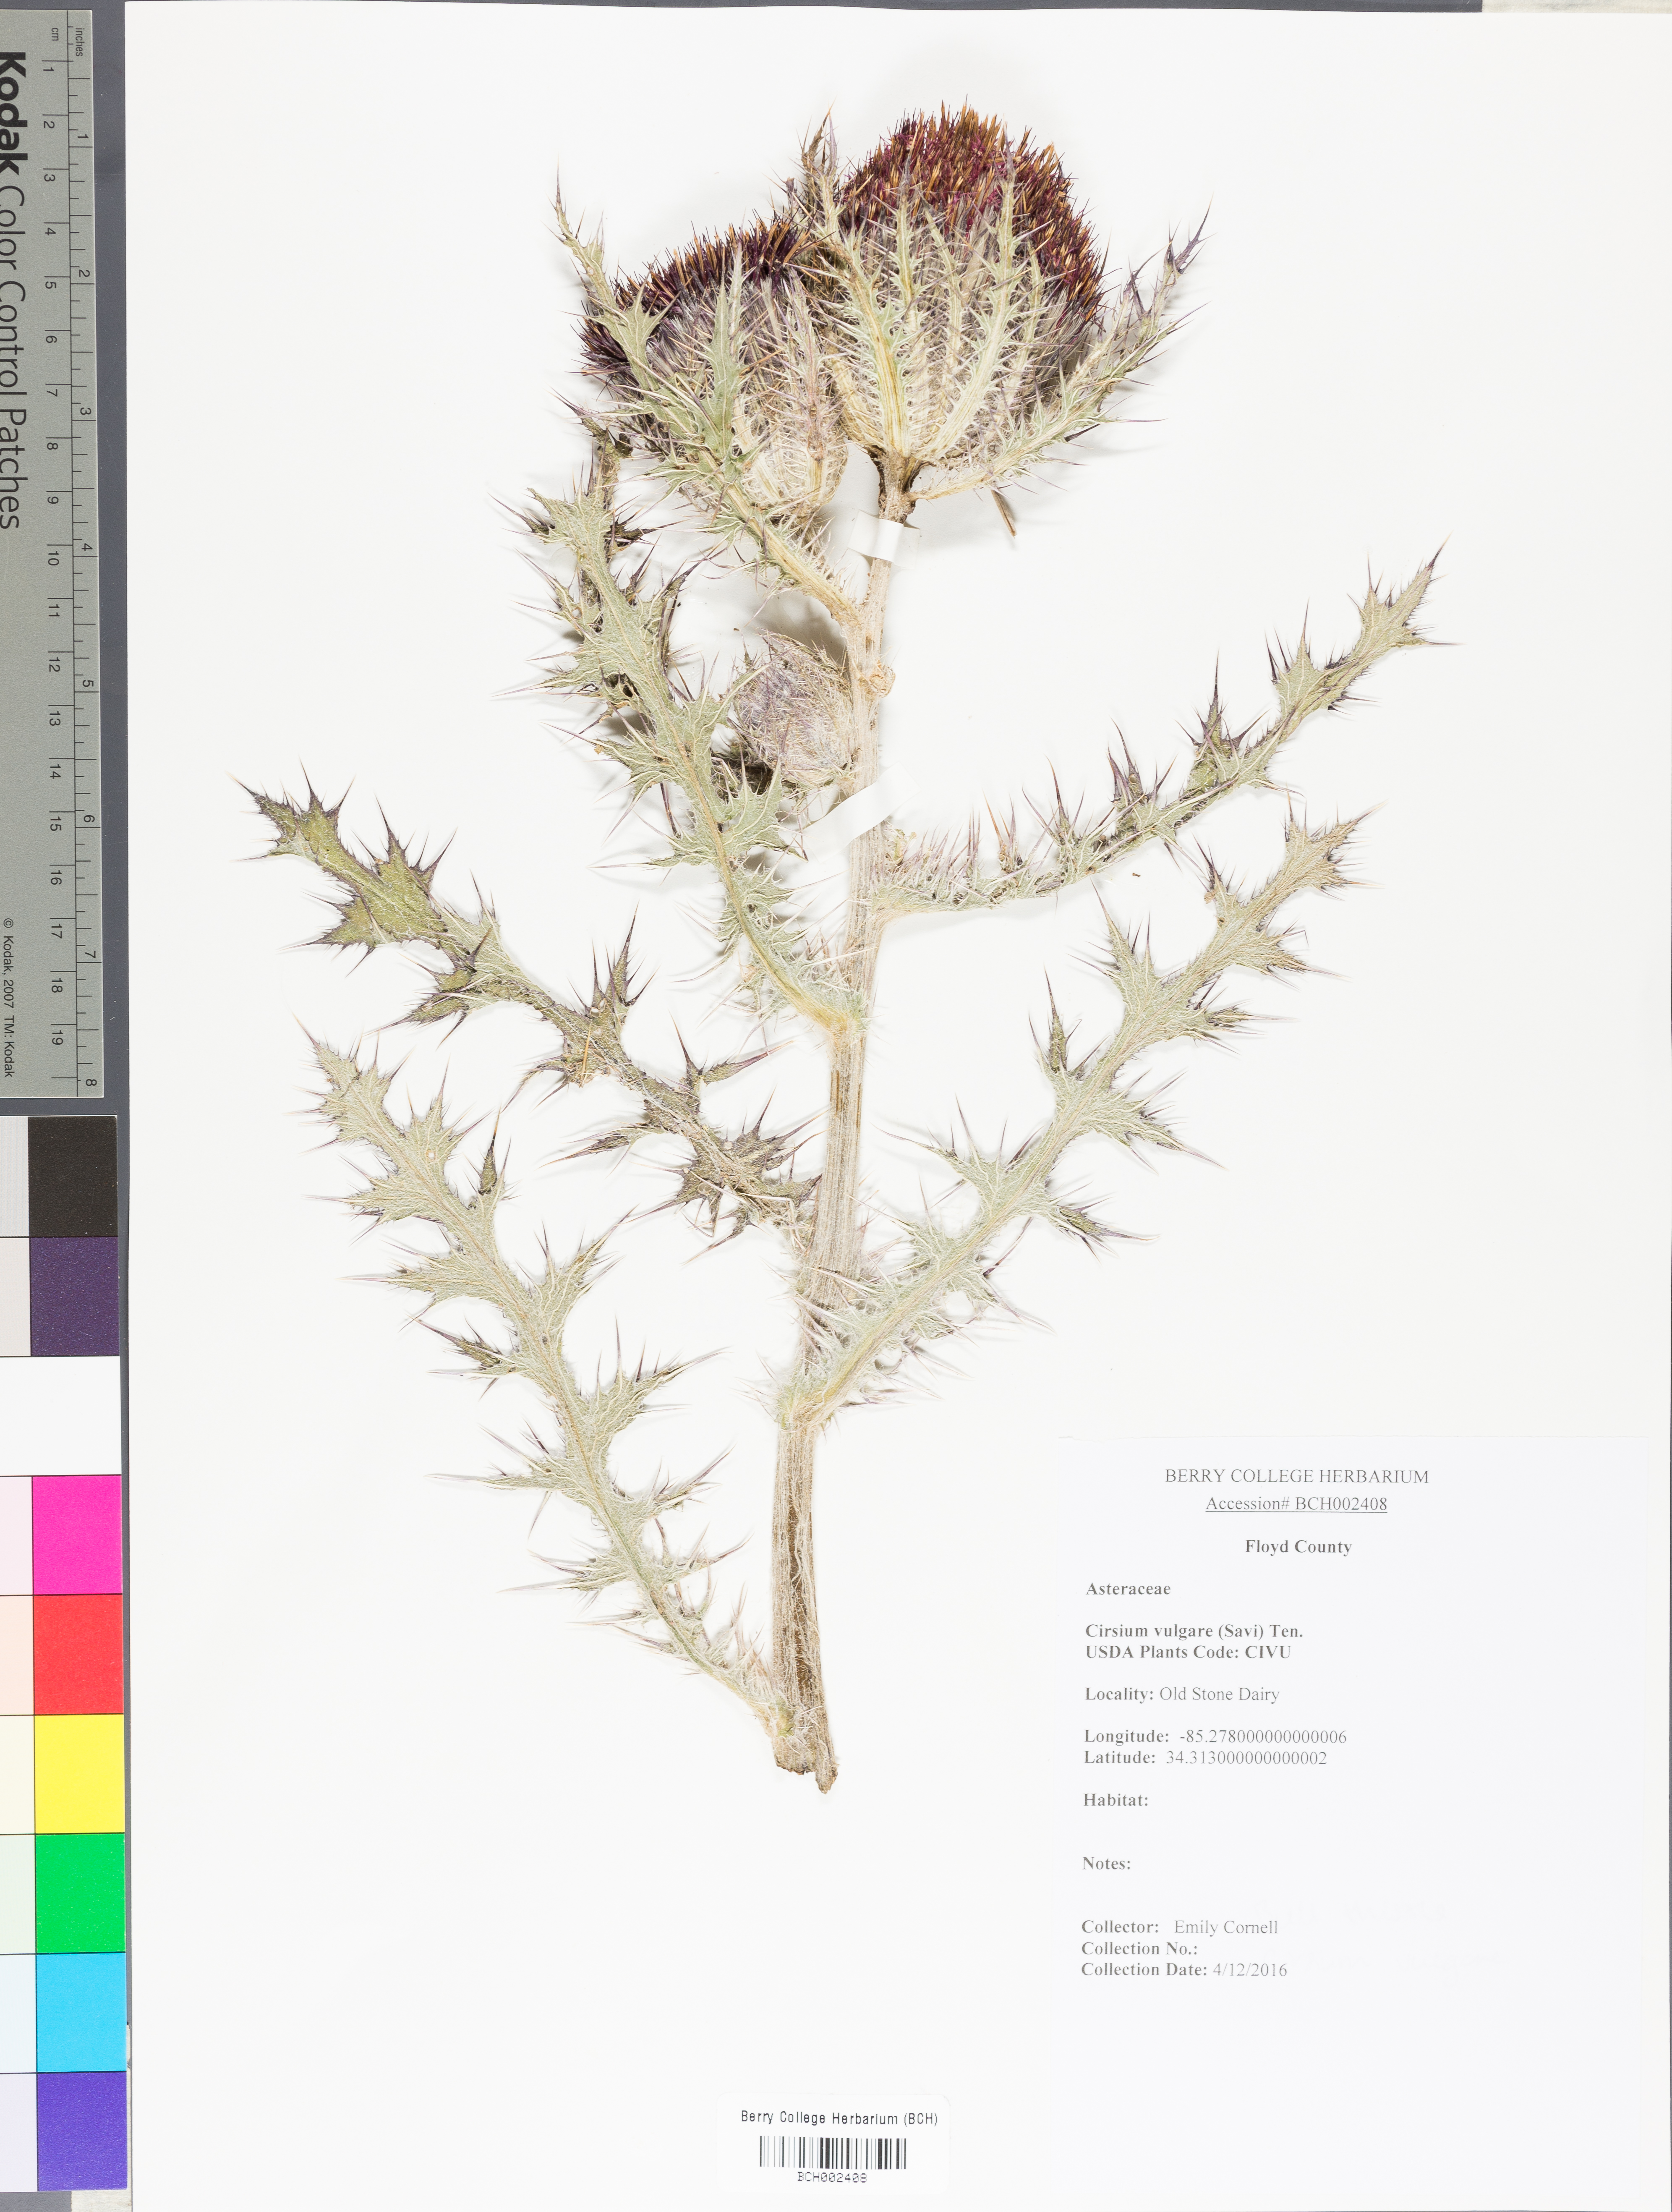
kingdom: Plantae
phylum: Tracheophyta
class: Magnoliopsida
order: Asterales
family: Asteraceae
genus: Cirsium
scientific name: Cirsium vulgare
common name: Bull thistle
